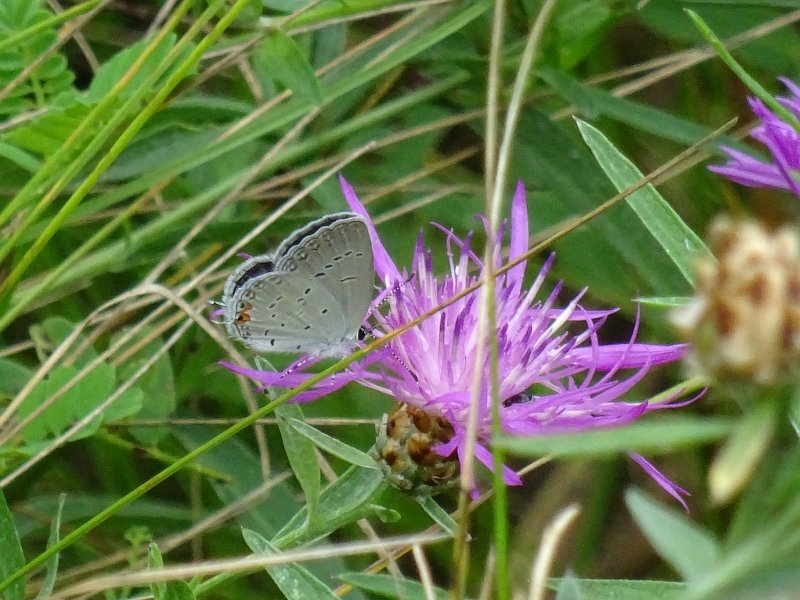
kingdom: Animalia
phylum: Arthropoda
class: Insecta
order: Lepidoptera
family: Lycaenidae
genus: Elkalyce
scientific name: Elkalyce comyntas
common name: Eastern Tailed-Blue
